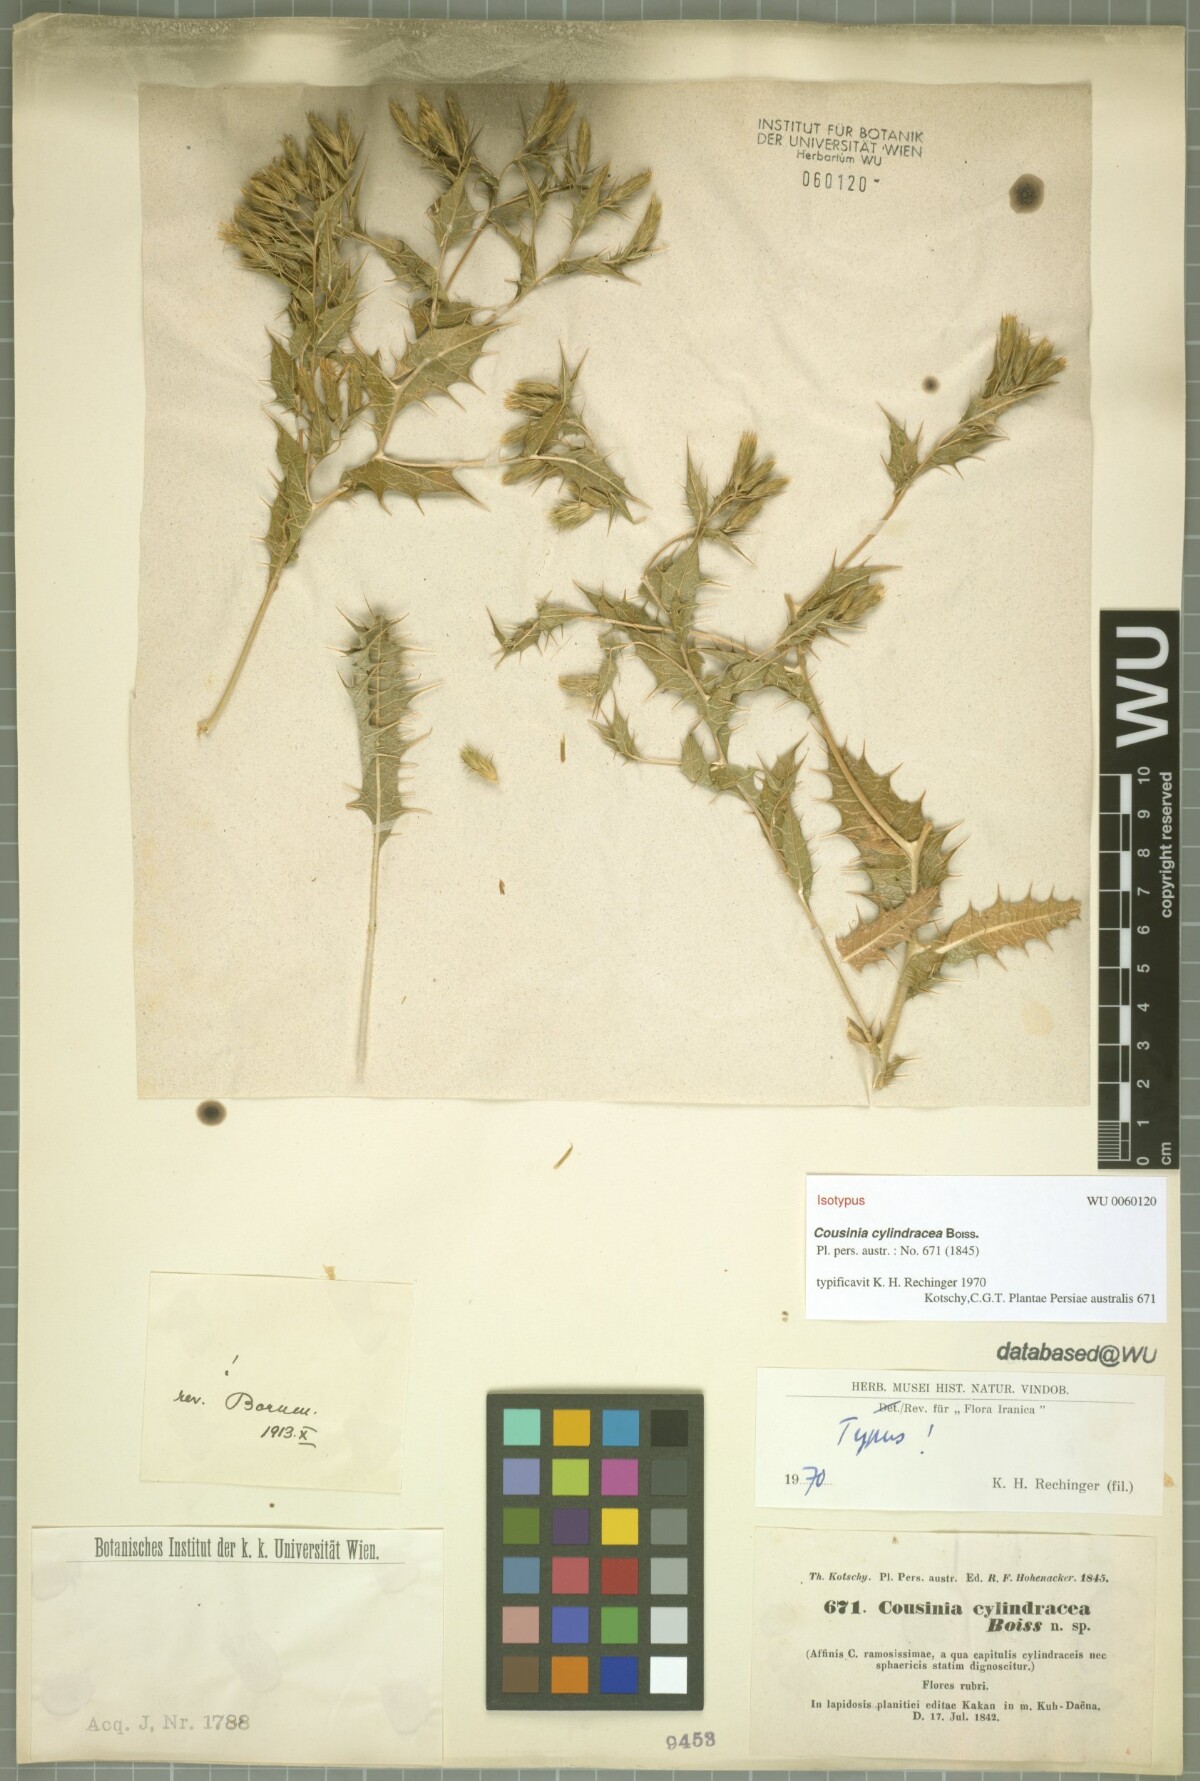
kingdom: Plantae
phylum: Tracheophyta
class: Magnoliopsida
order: Asterales
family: Asteraceae
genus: Cousinia
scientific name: Cousinia cylindracea
